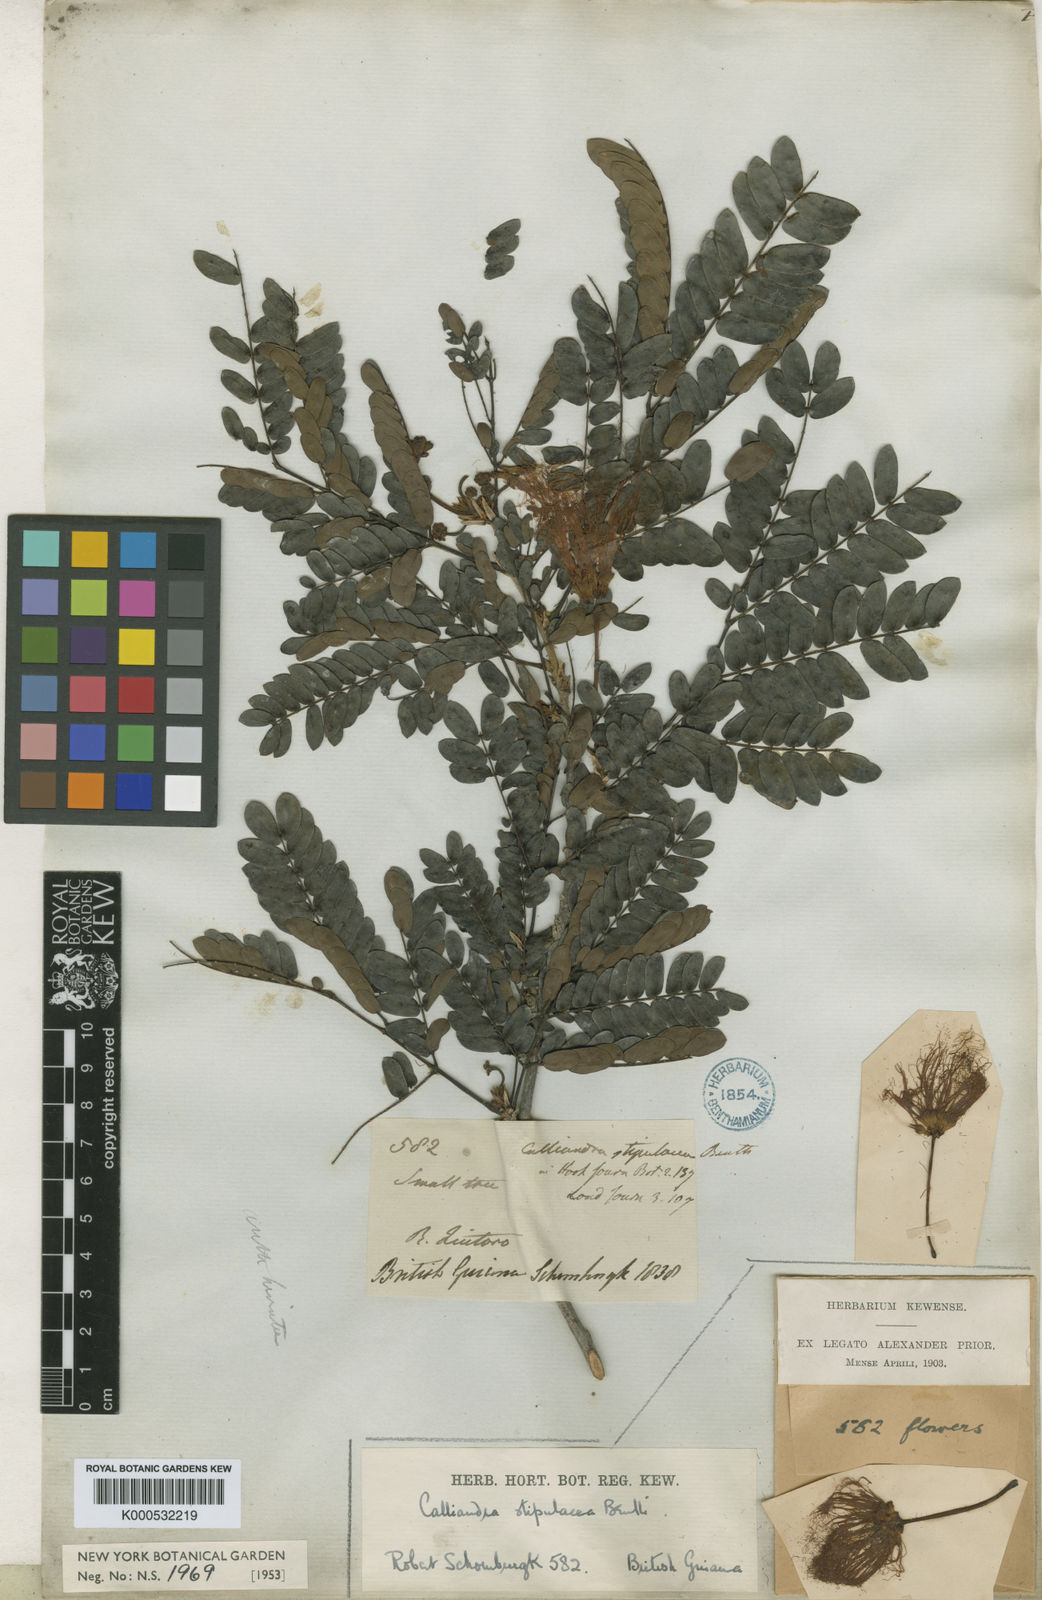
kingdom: Plantae
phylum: Tracheophyta
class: Magnoliopsida
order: Fabales
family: Fabaceae
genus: Calliandra
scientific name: Calliandra laxa
